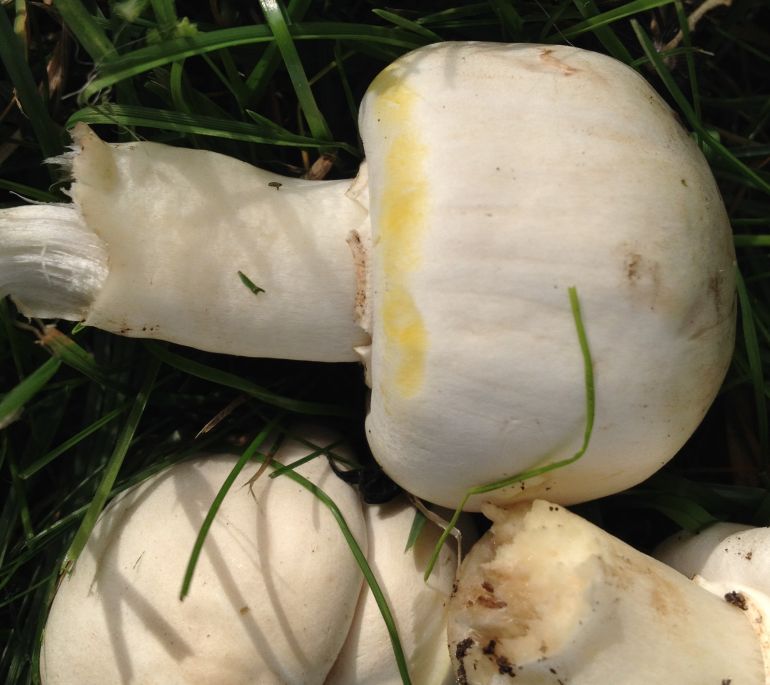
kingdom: Fungi
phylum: Basidiomycota
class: Agaricomycetes
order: Agaricales
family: Agaricaceae
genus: Agaricus
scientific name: Agaricus xanthodermus
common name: karbol-champignon
